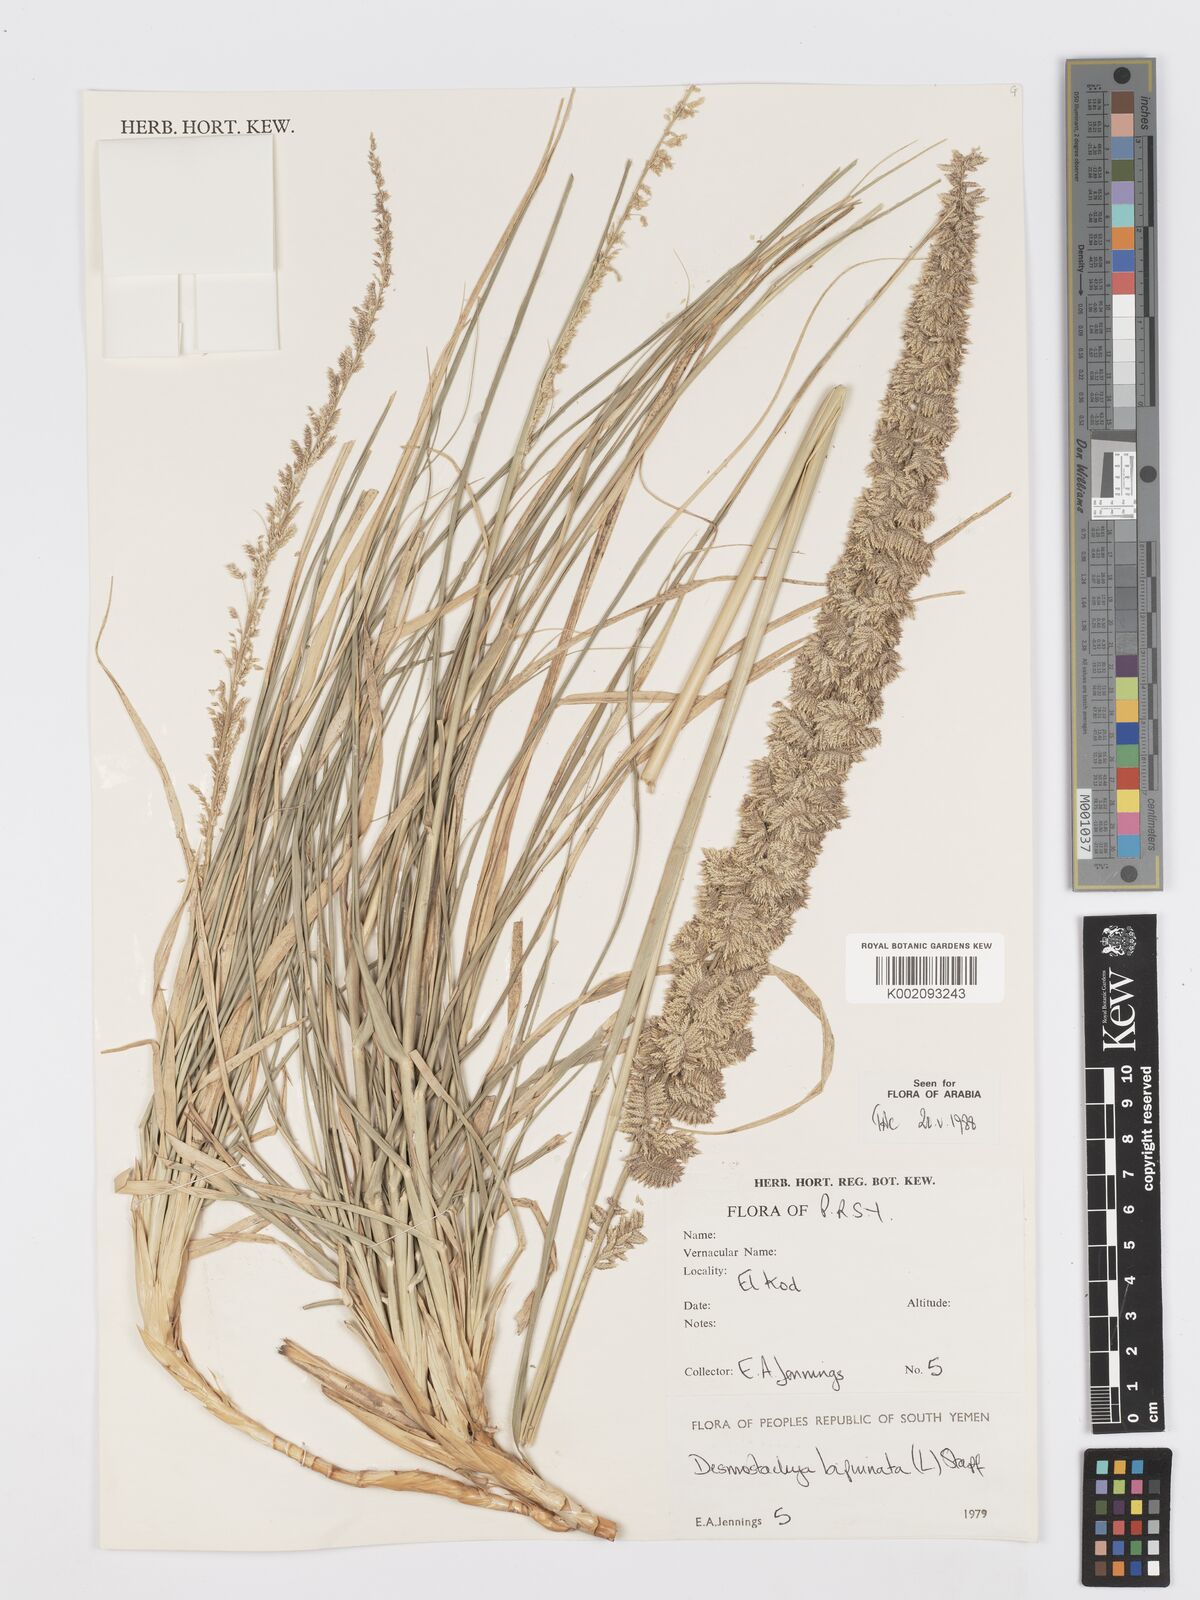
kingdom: Plantae
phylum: Tracheophyta
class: Liliopsida
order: Poales
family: Poaceae
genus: Desmostachya
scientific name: Desmostachya bipinnata
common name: Crowfoot grass
